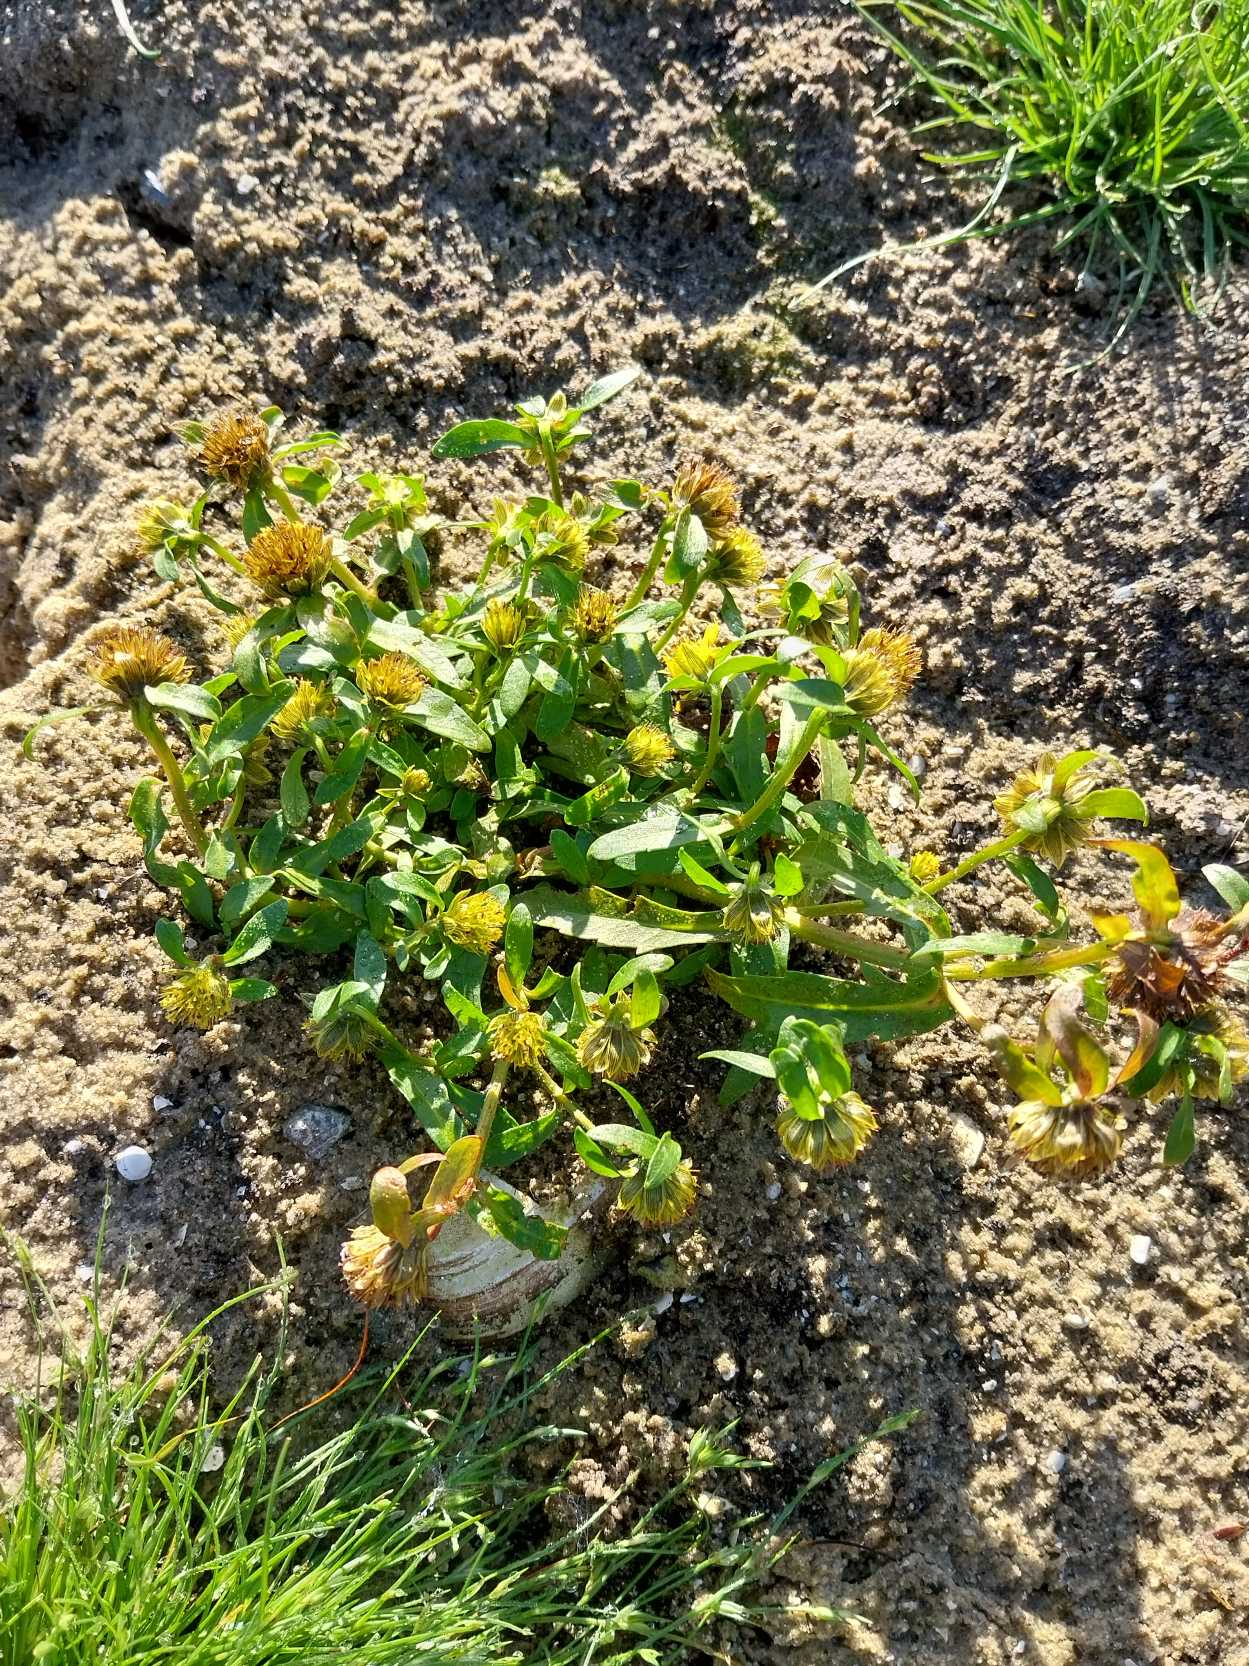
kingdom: Plantae
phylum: Tracheophyta
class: Magnoliopsida
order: Asterales
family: Asteraceae
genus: Bidens
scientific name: Bidens cernua
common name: Nikkende brøndsel
